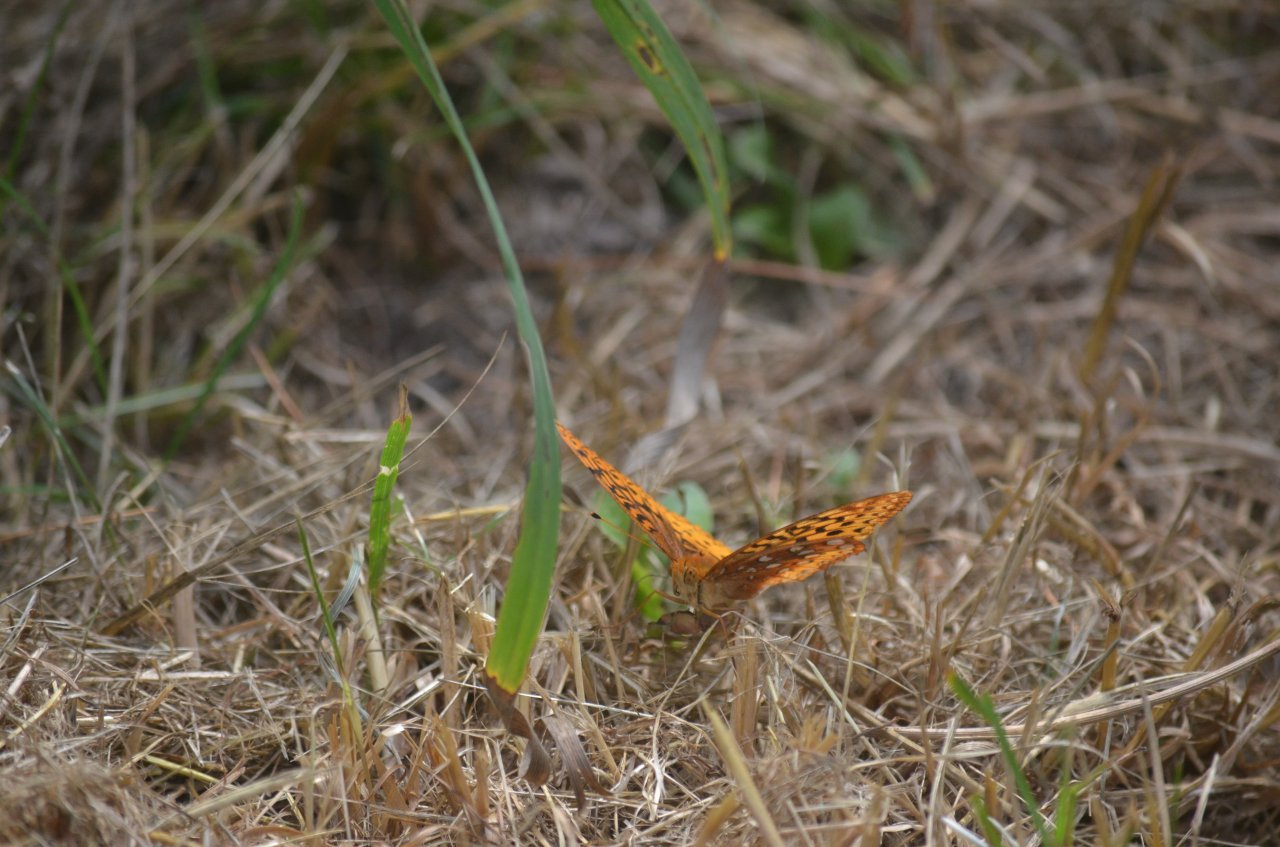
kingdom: Animalia
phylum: Arthropoda
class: Insecta
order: Lepidoptera
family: Nymphalidae
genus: Speyeria
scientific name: Speyeria cybele
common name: Great Spangled Fritillary
